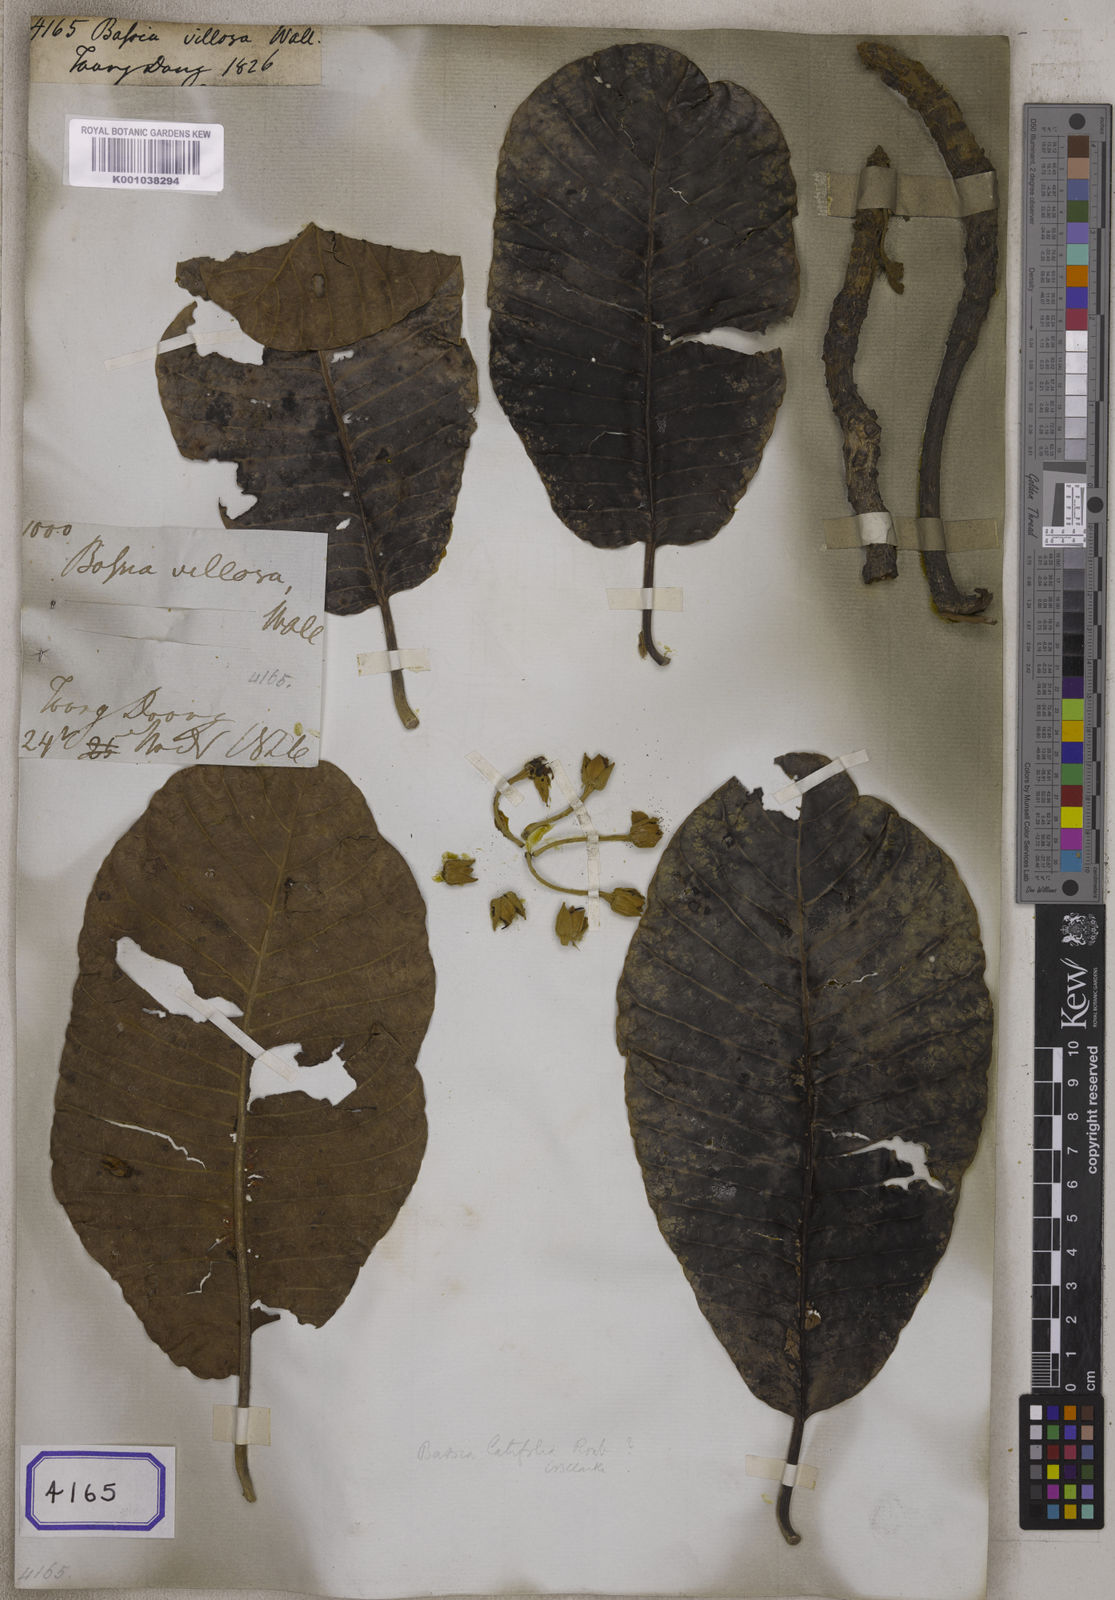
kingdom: Plantae
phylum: Tracheophyta
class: Magnoliopsida
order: Caryophyllales
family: Amaranthaceae
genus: Bassia
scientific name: Bassia
